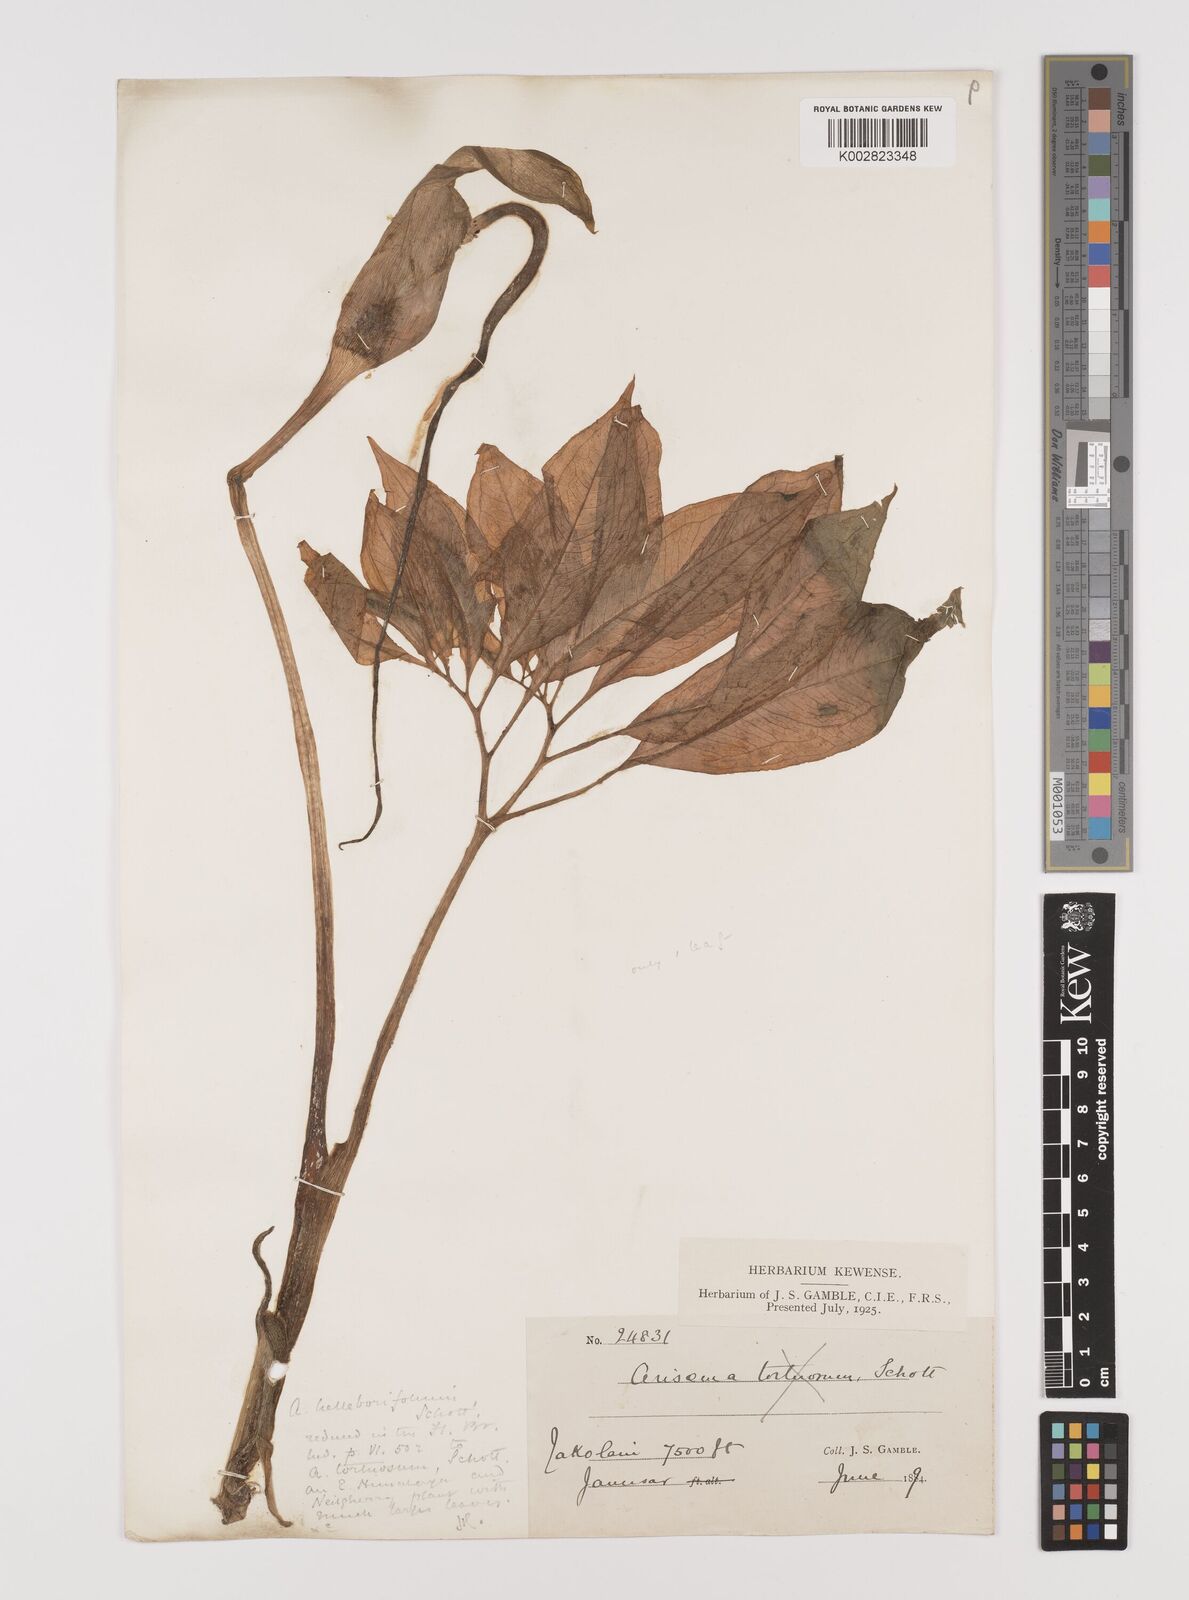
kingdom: Plantae
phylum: Tracheophyta
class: Liliopsida
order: Alismatales
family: Araceae
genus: Arisaema
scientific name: Arisaema tortuosum
